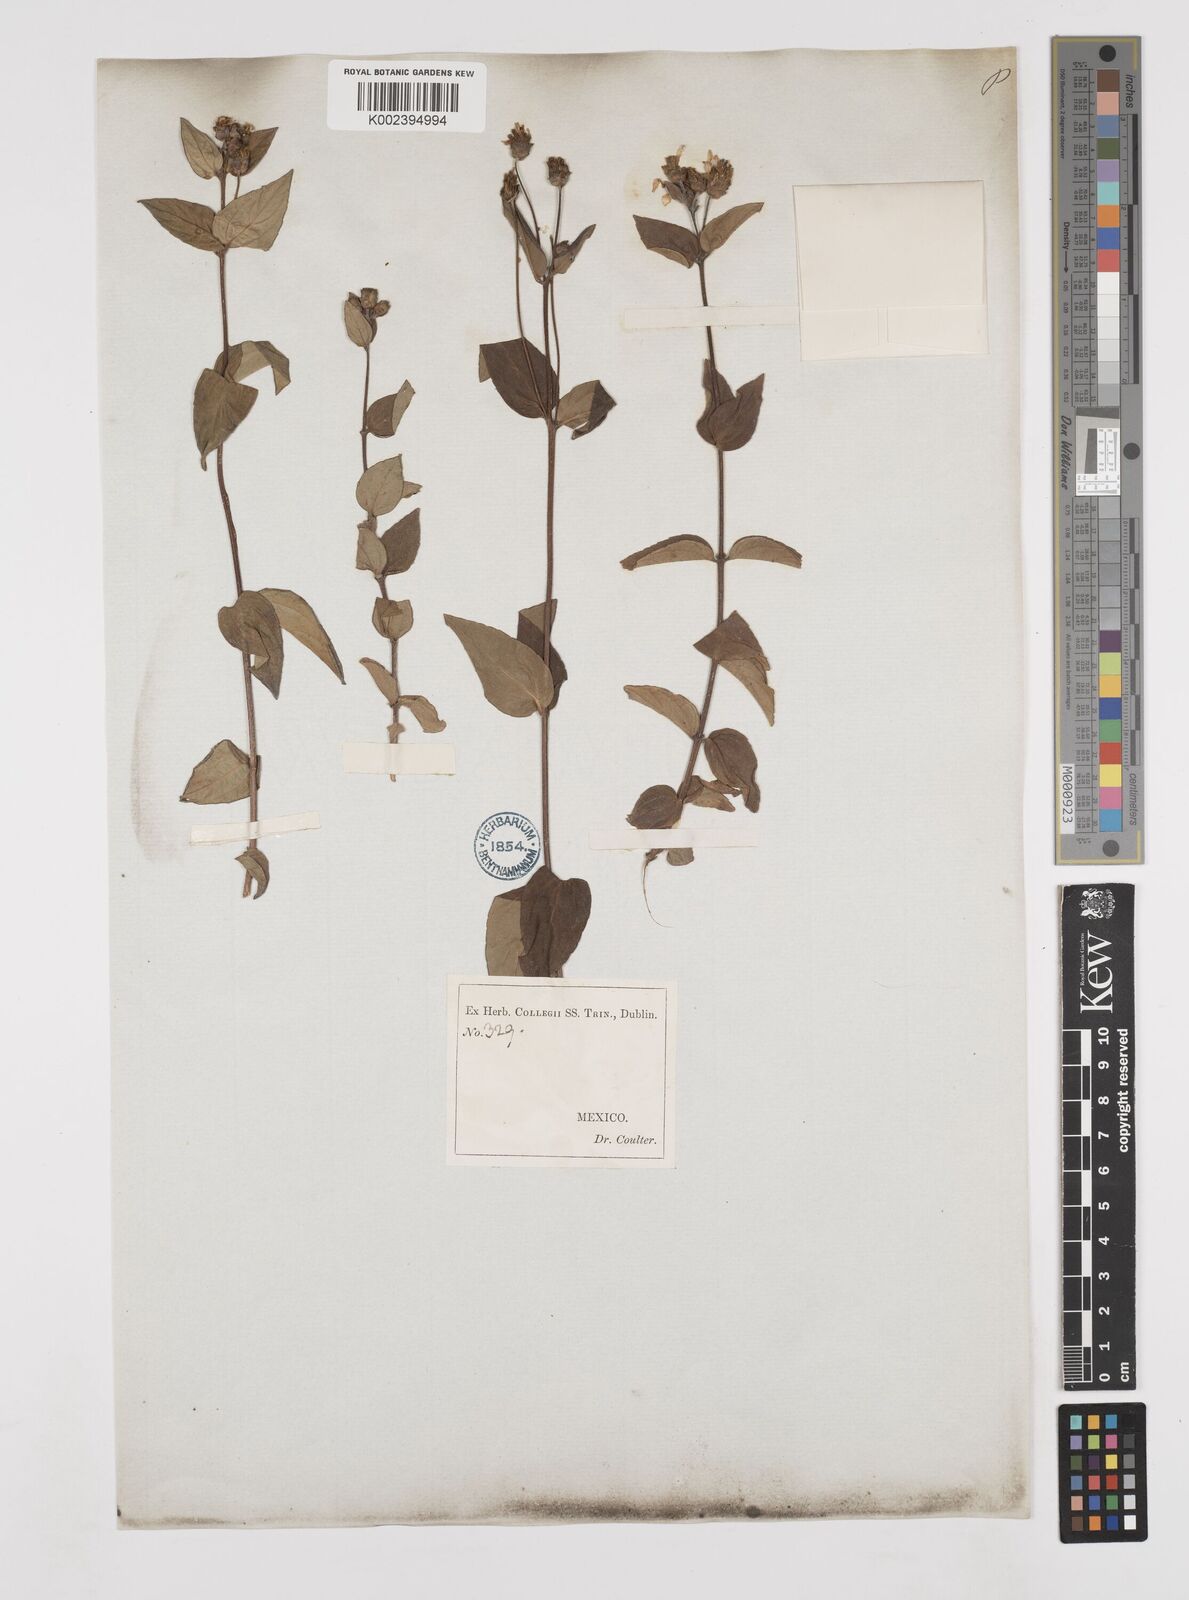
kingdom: Plantae
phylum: Tracheophyta
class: Magnoliopsida
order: Asterales
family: Asteraceae
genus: Perymenium
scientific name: Perymenium berlandieri
